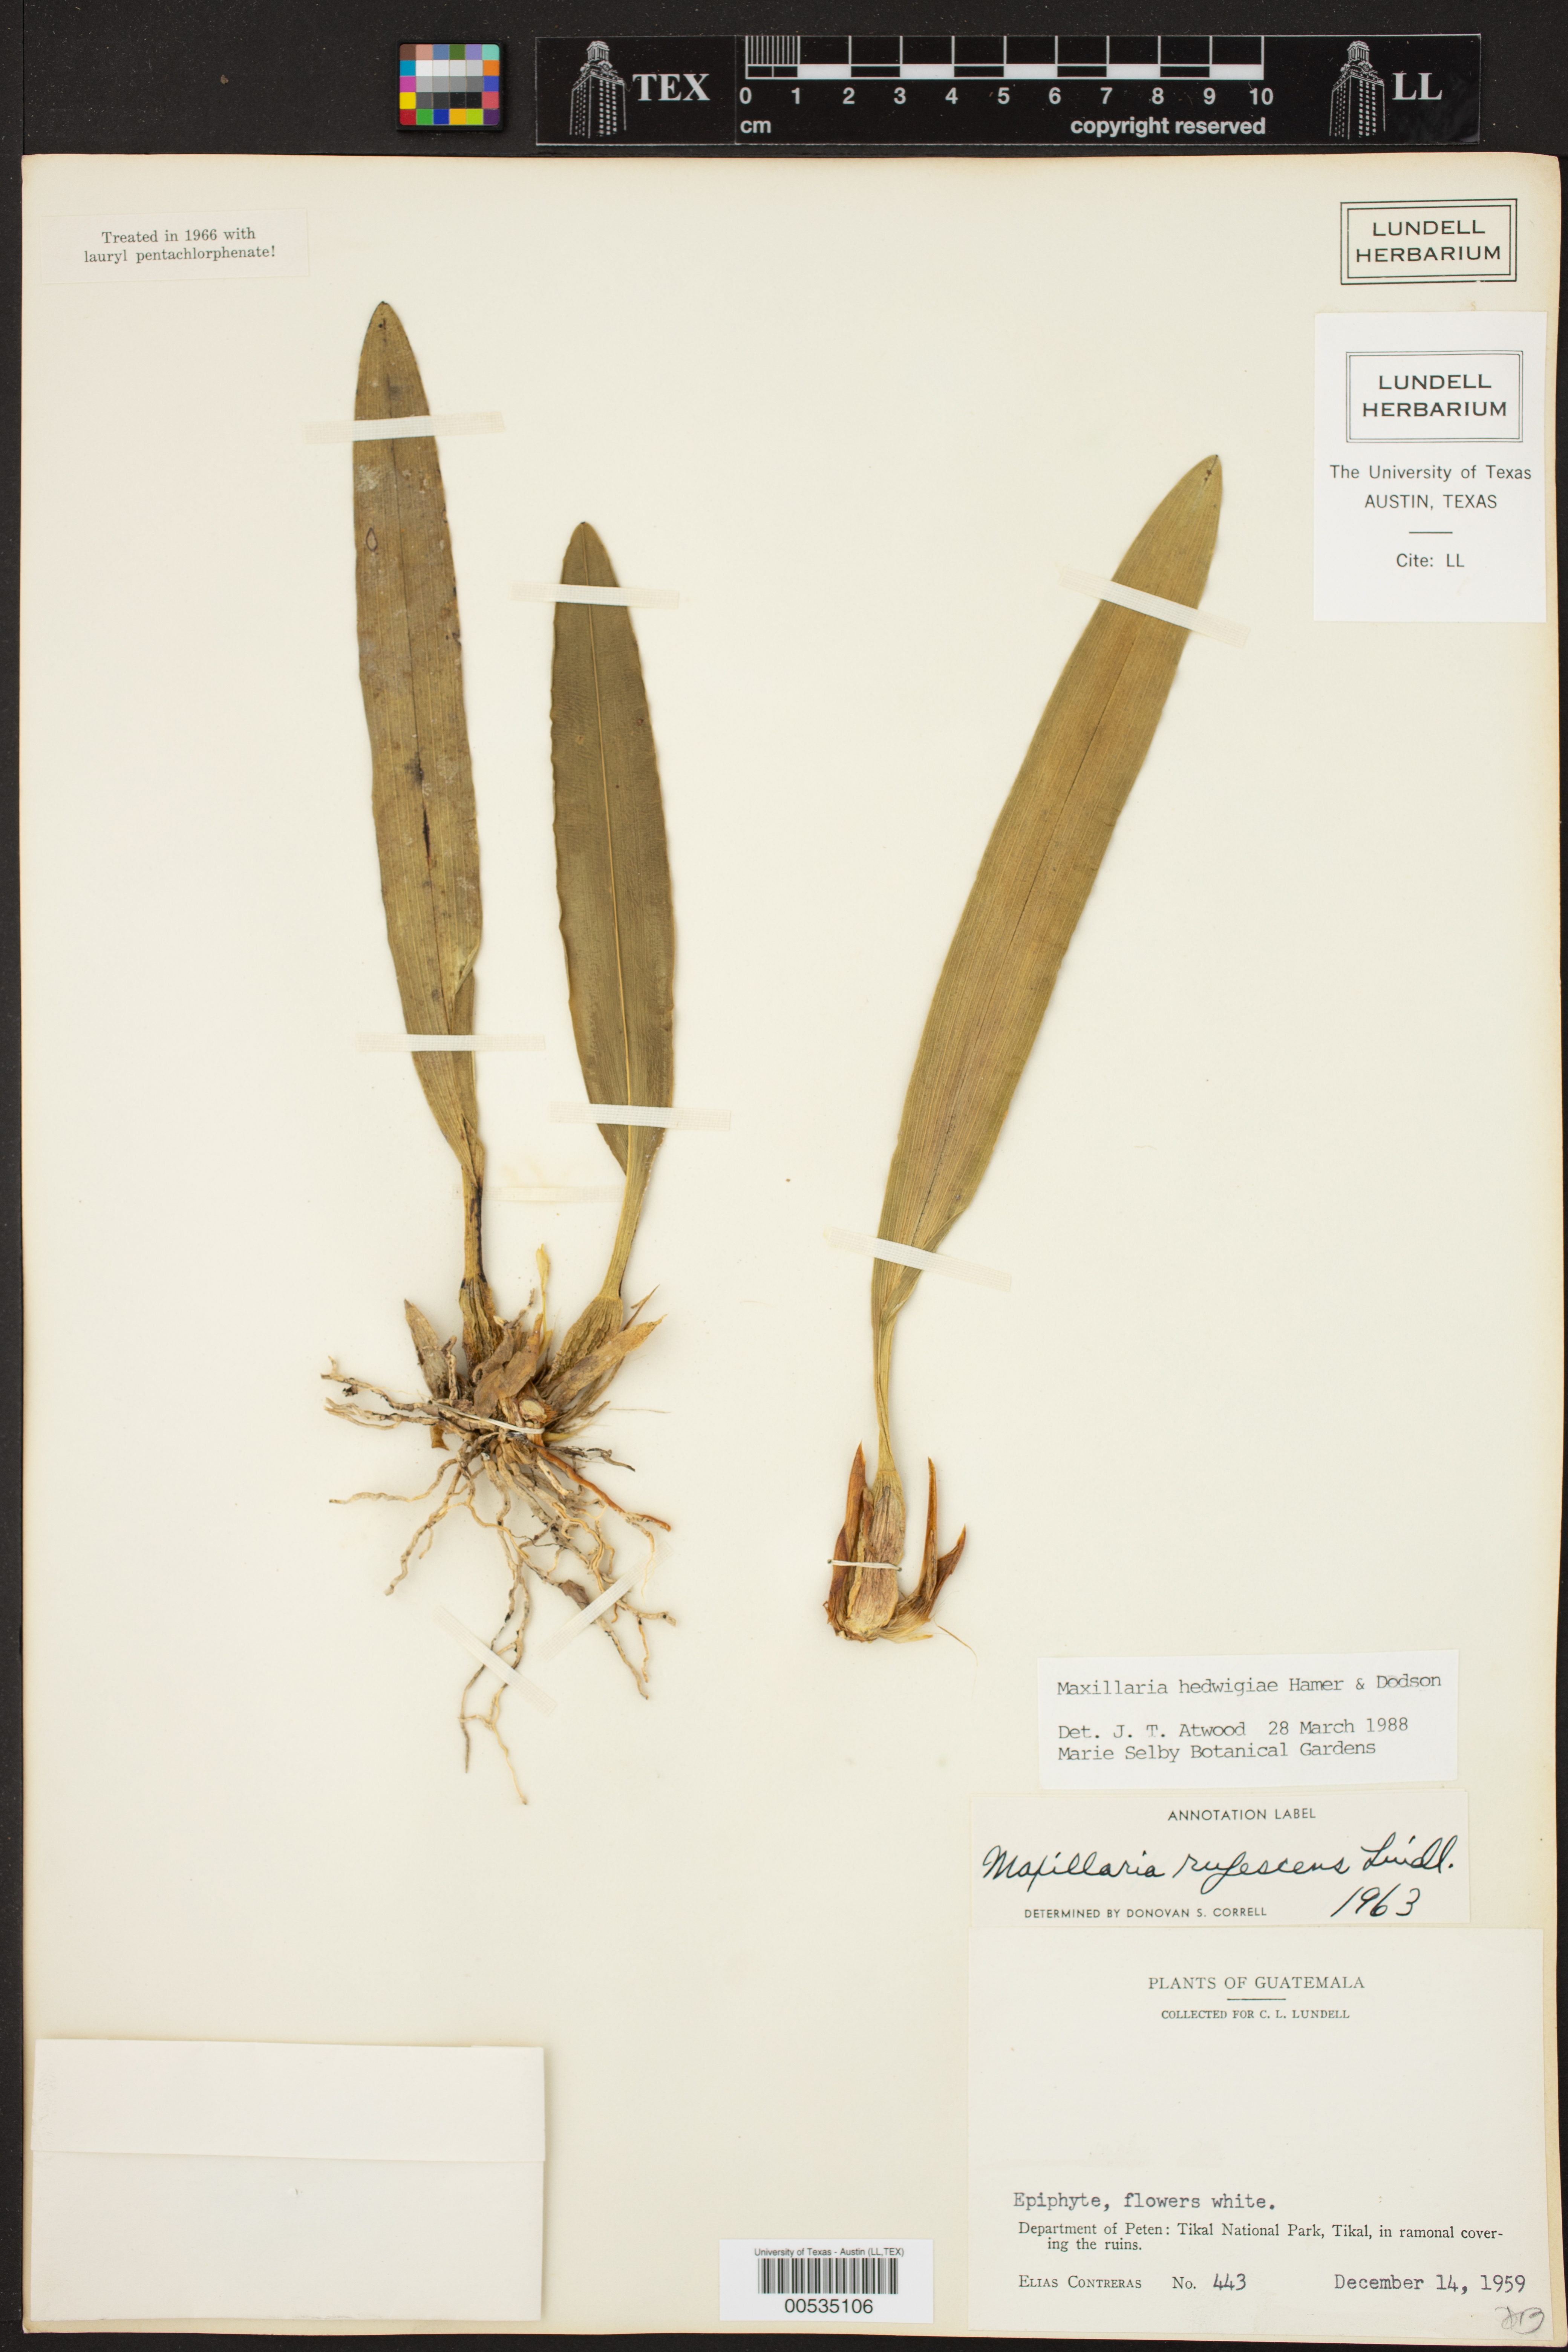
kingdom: Plantae
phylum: Tracheophyta
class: Liliopsida
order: Asparagales
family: Orchidaceae
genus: Maxillaria
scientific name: Maxillaria hedwigiae
